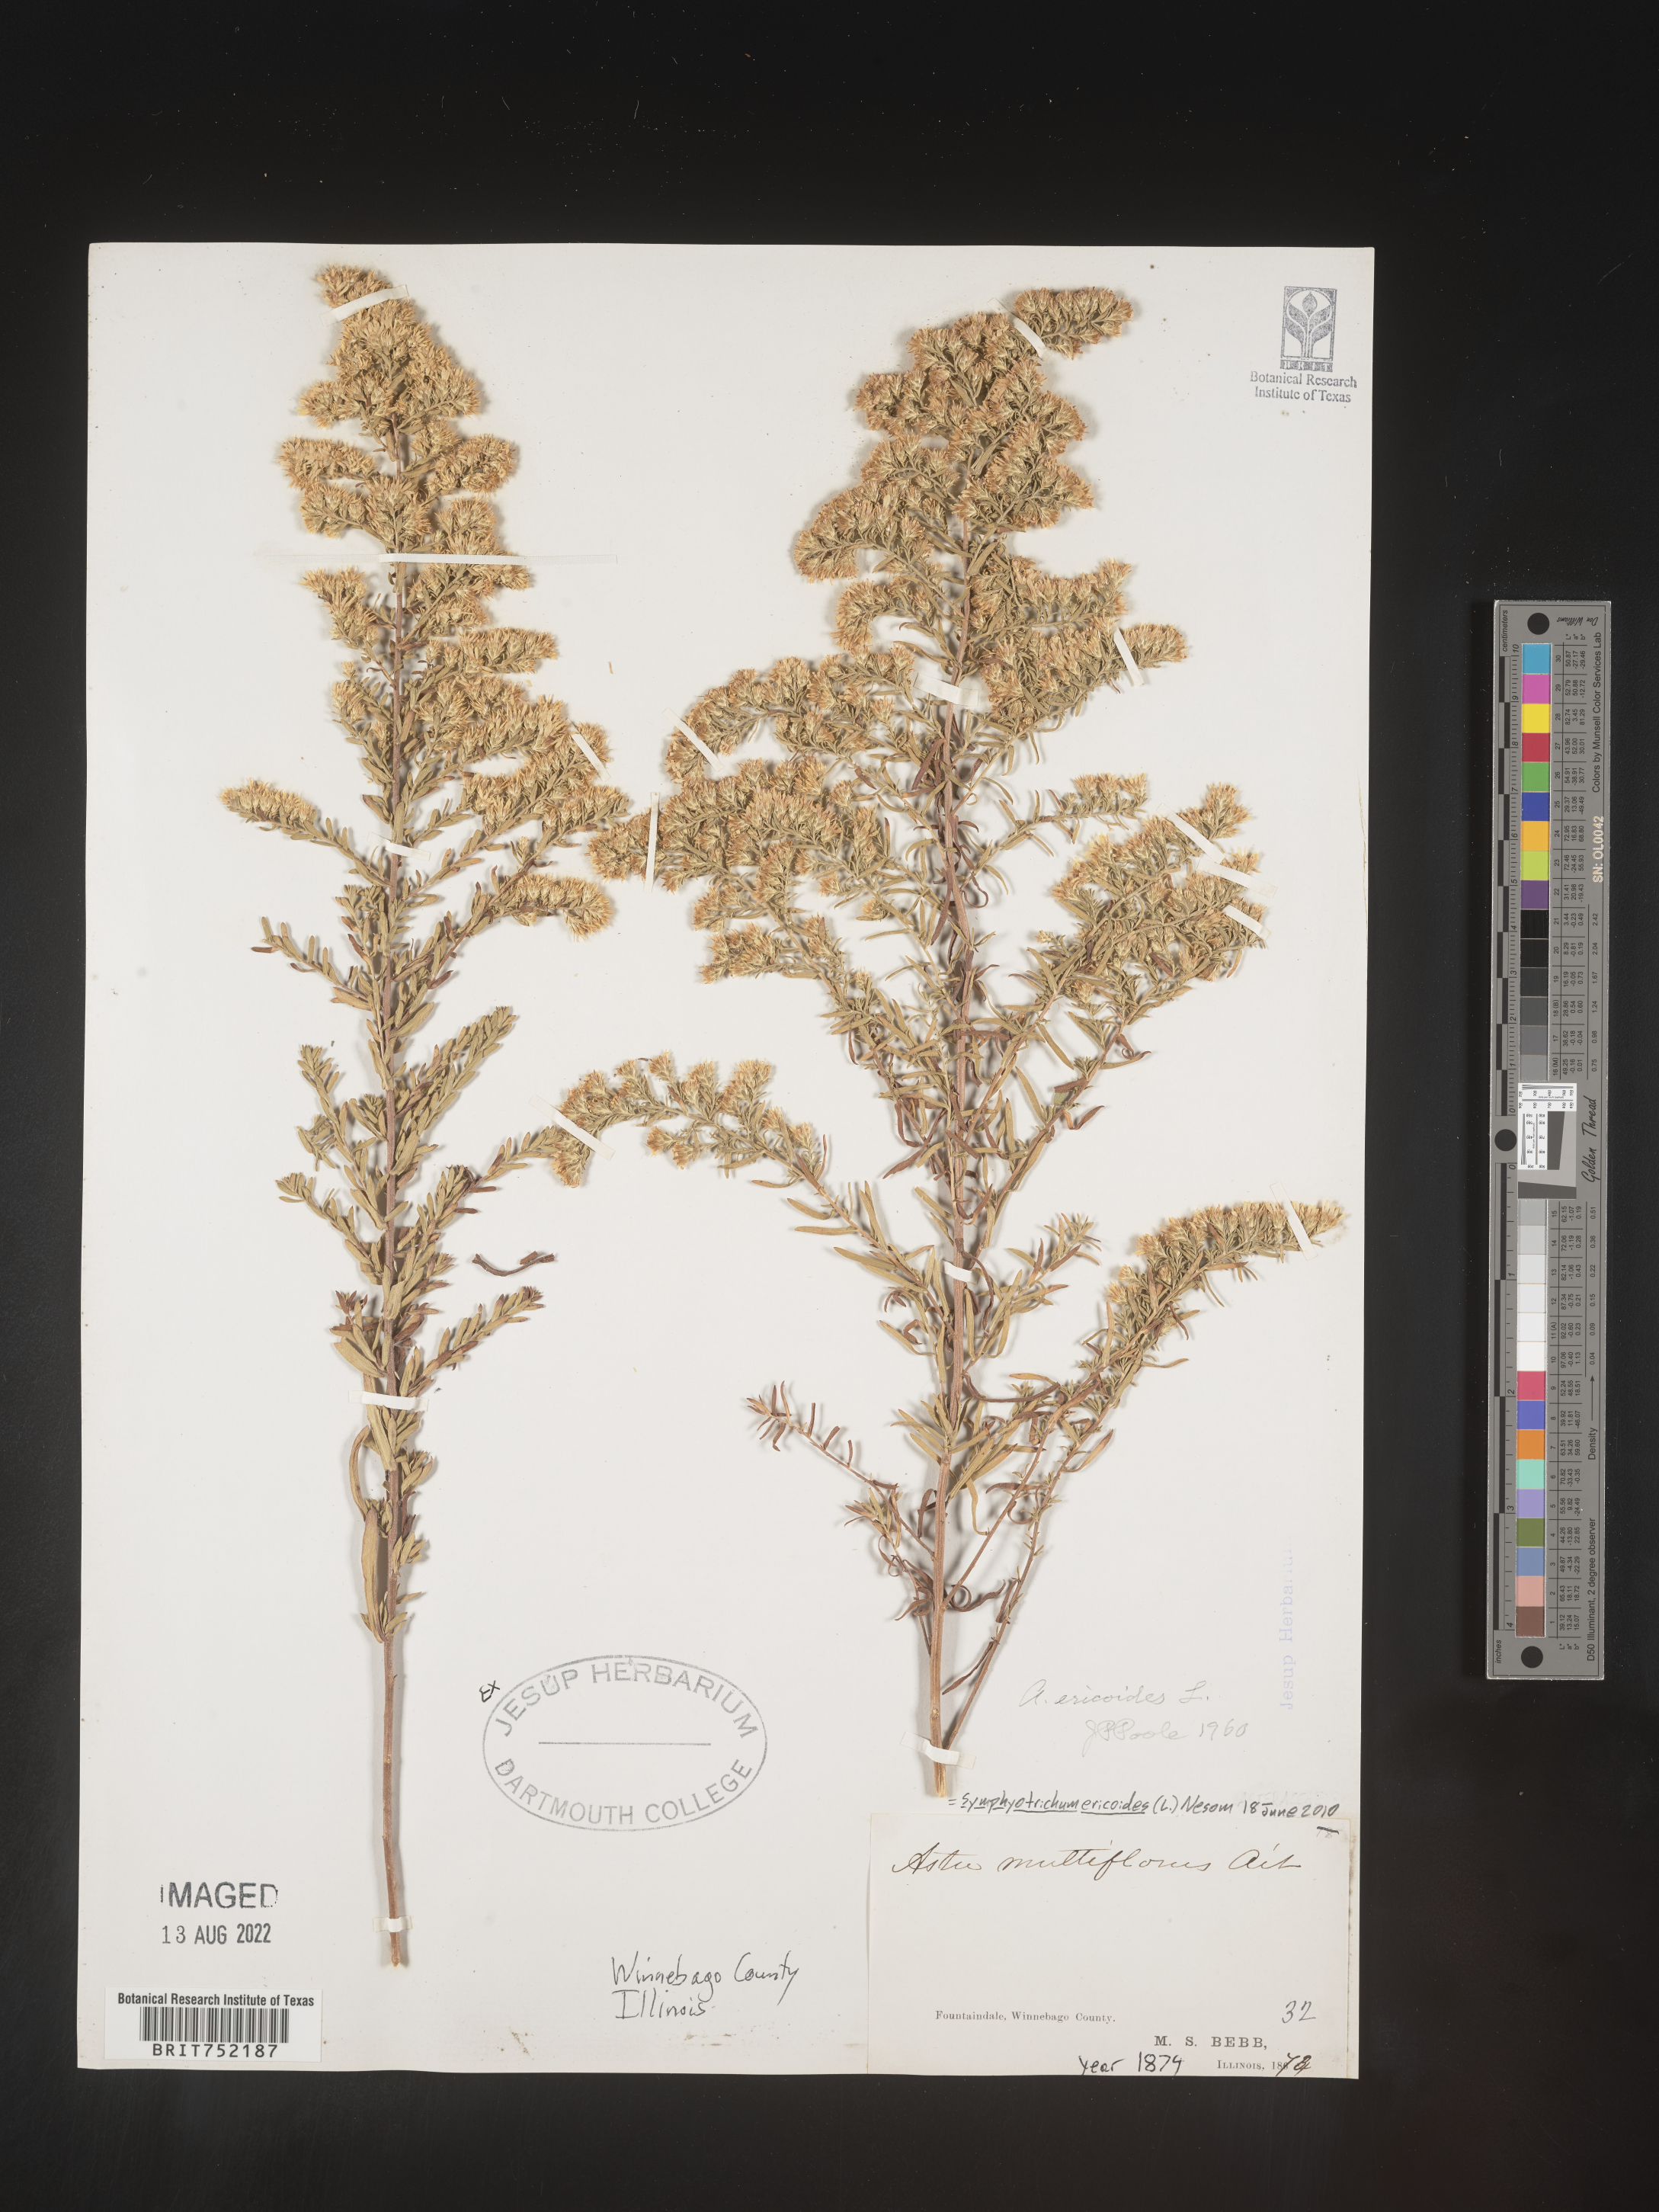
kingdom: Plantae
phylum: Tracheophyta
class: Magnoliopsida
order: Asterales
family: Asteraceae
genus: Symphyotrichum
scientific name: Symphyotrichum ericoides
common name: Heath aster
